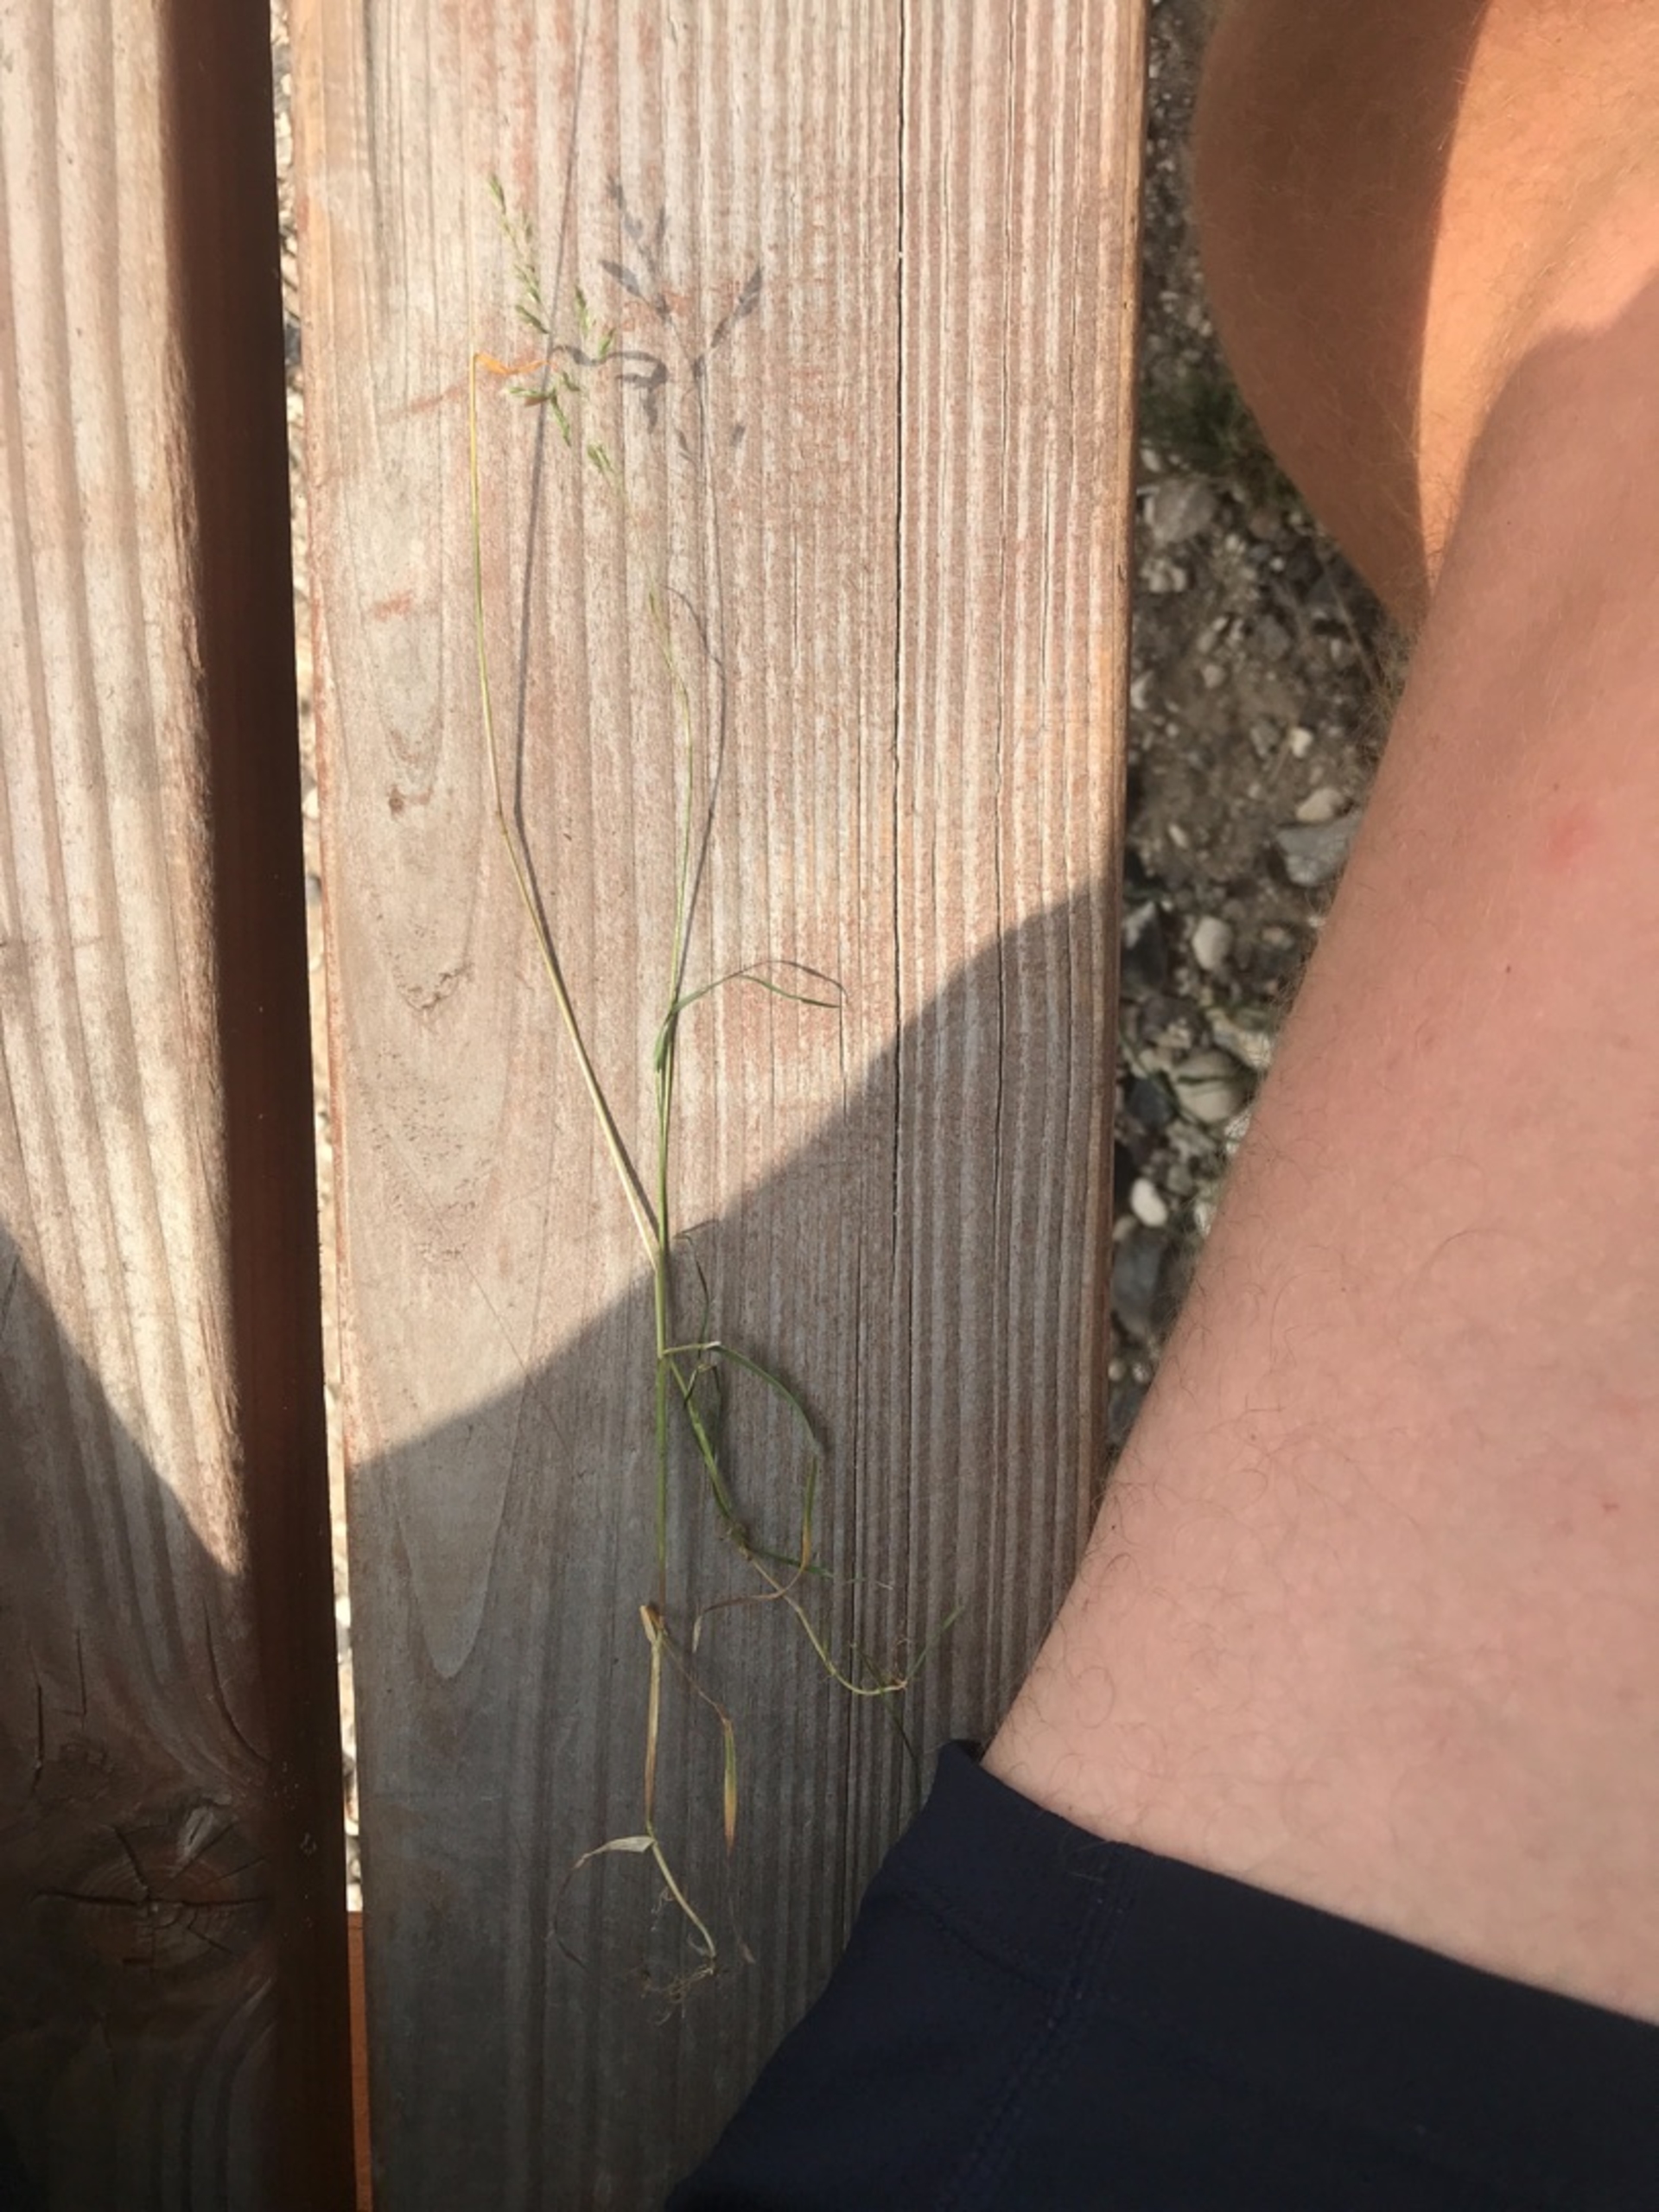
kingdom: Plantae
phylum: Tracheophyta
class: Liliopsida
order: Poales
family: Poaceae
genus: Poa
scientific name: Poa trivialis
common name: Almindelig rapgræs
